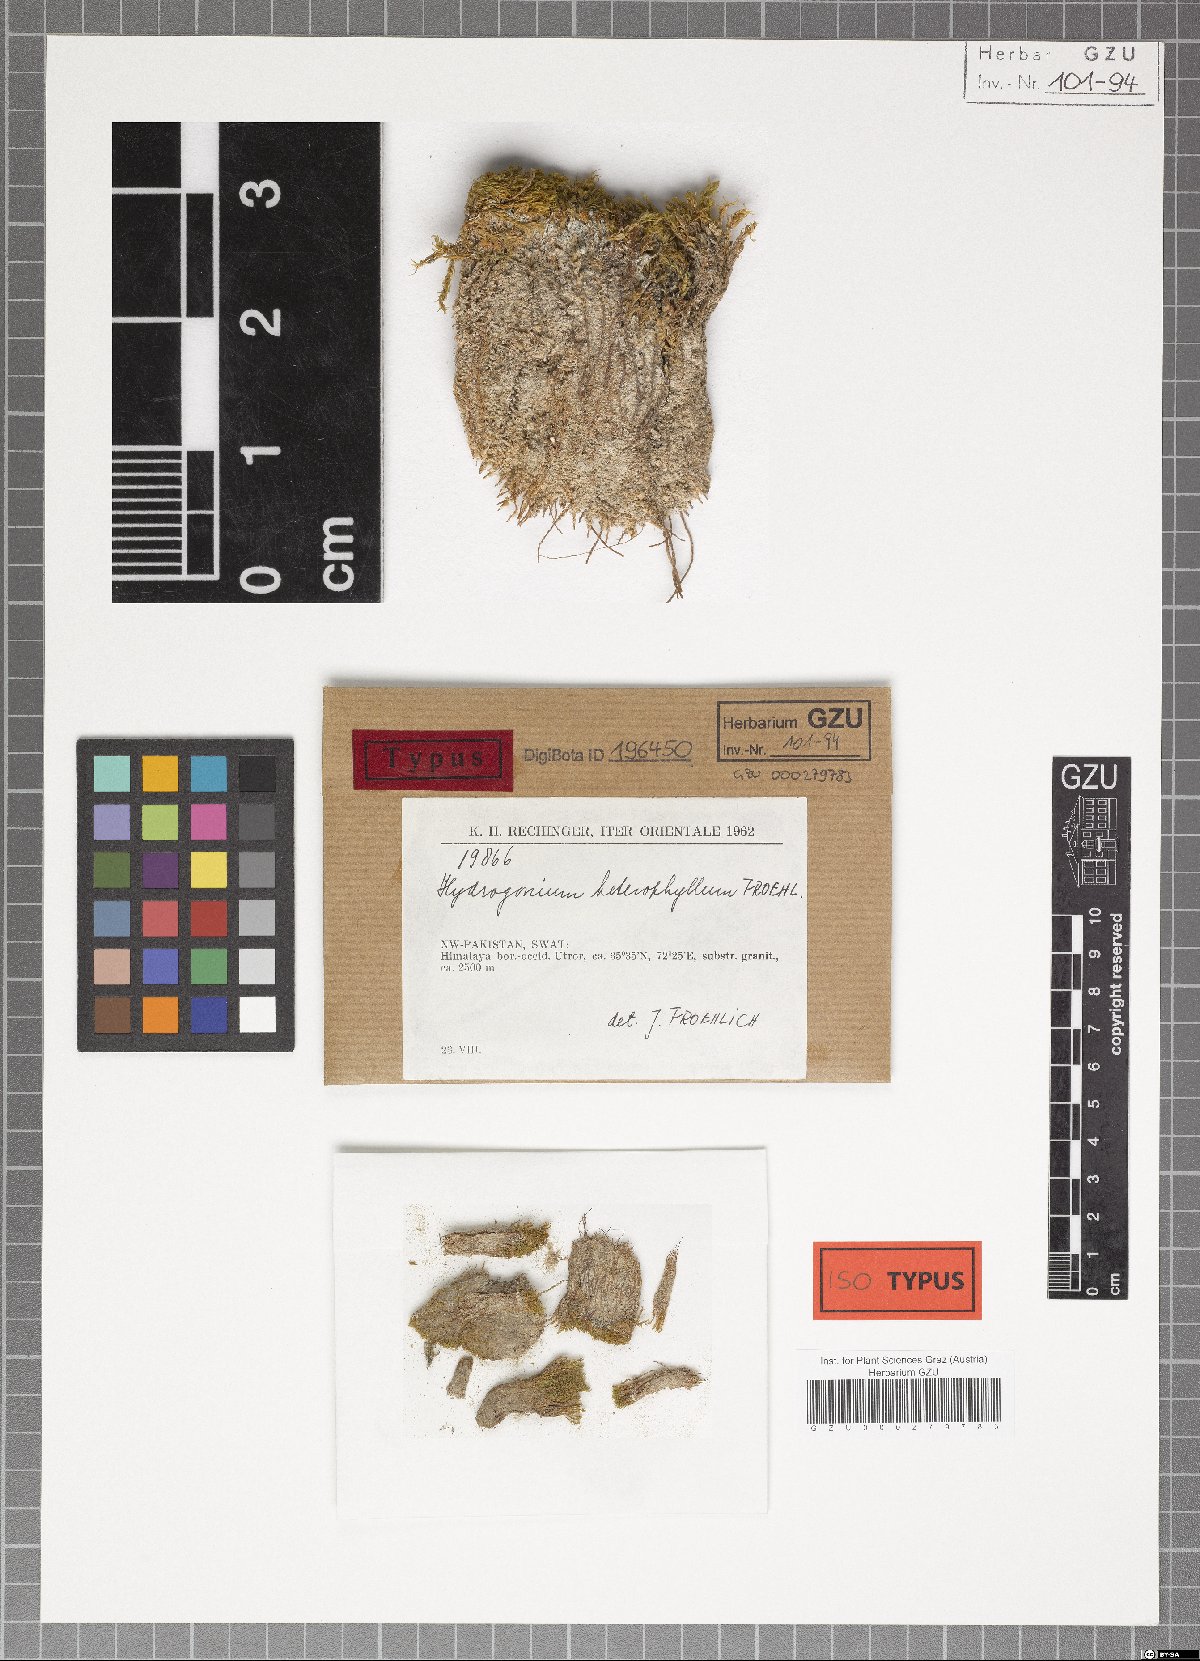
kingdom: Plantae
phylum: Bryophyta
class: Bryopsida
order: Pottiales
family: Pottiaceae
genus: Hydrogonium
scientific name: Hydrogonium heterophyllum
